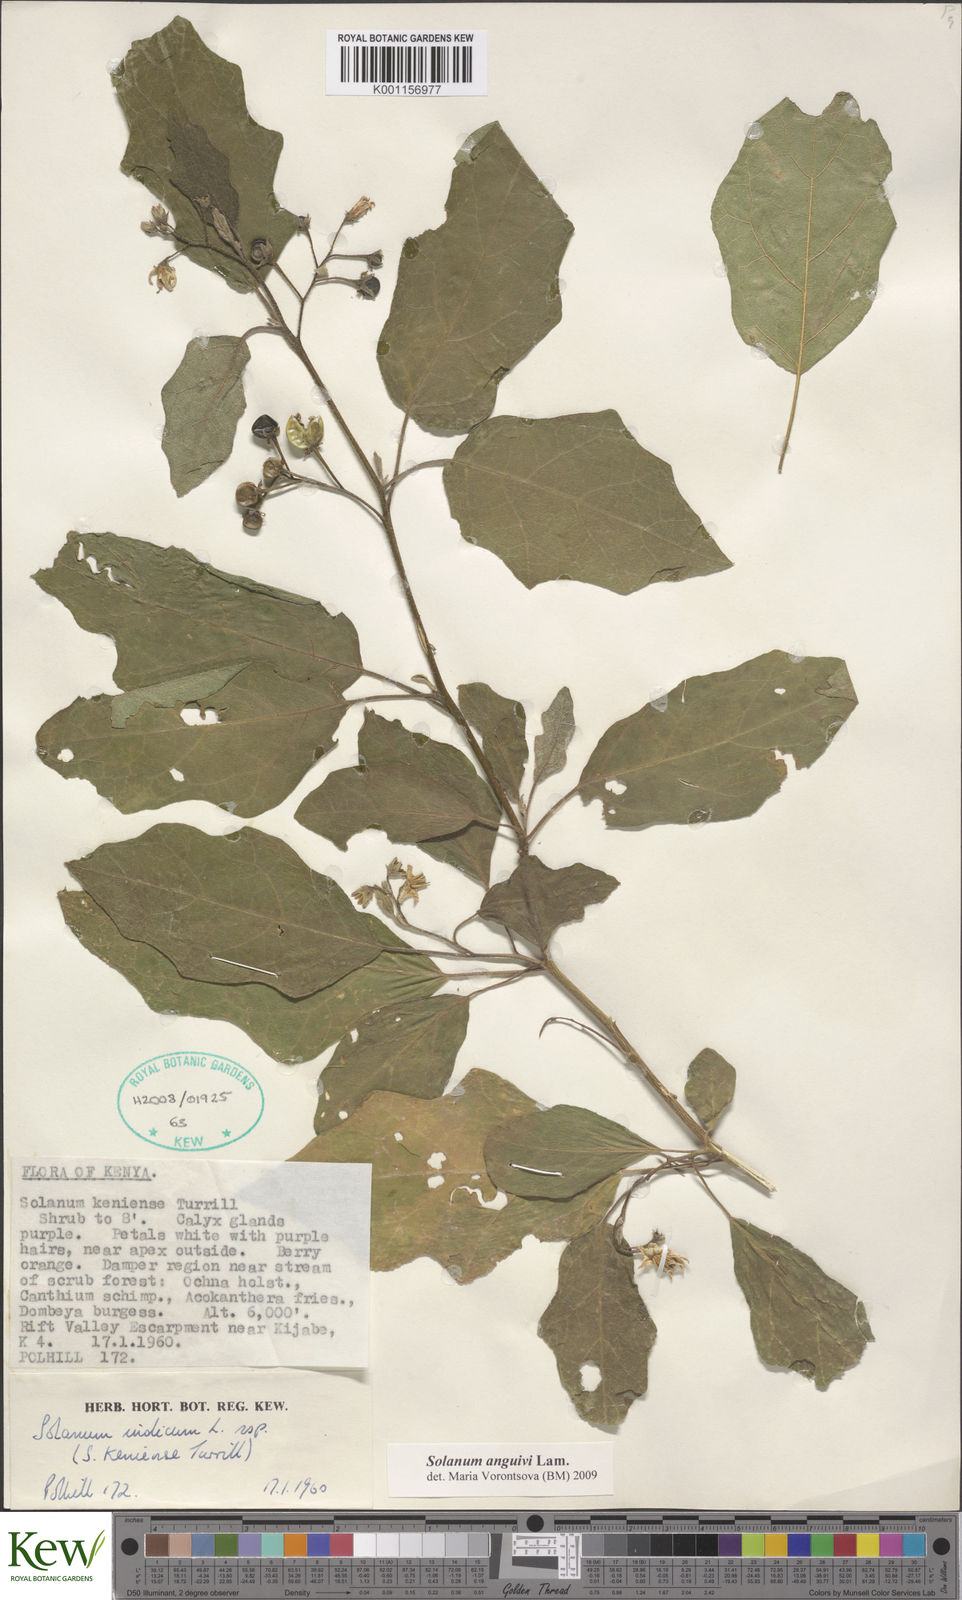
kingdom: Plantae
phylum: Tracheophyta
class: Magnoliopsida
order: Solanales
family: Solanaceae
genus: Solanum
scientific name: Solanum anguivi
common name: Forest bitterberry
